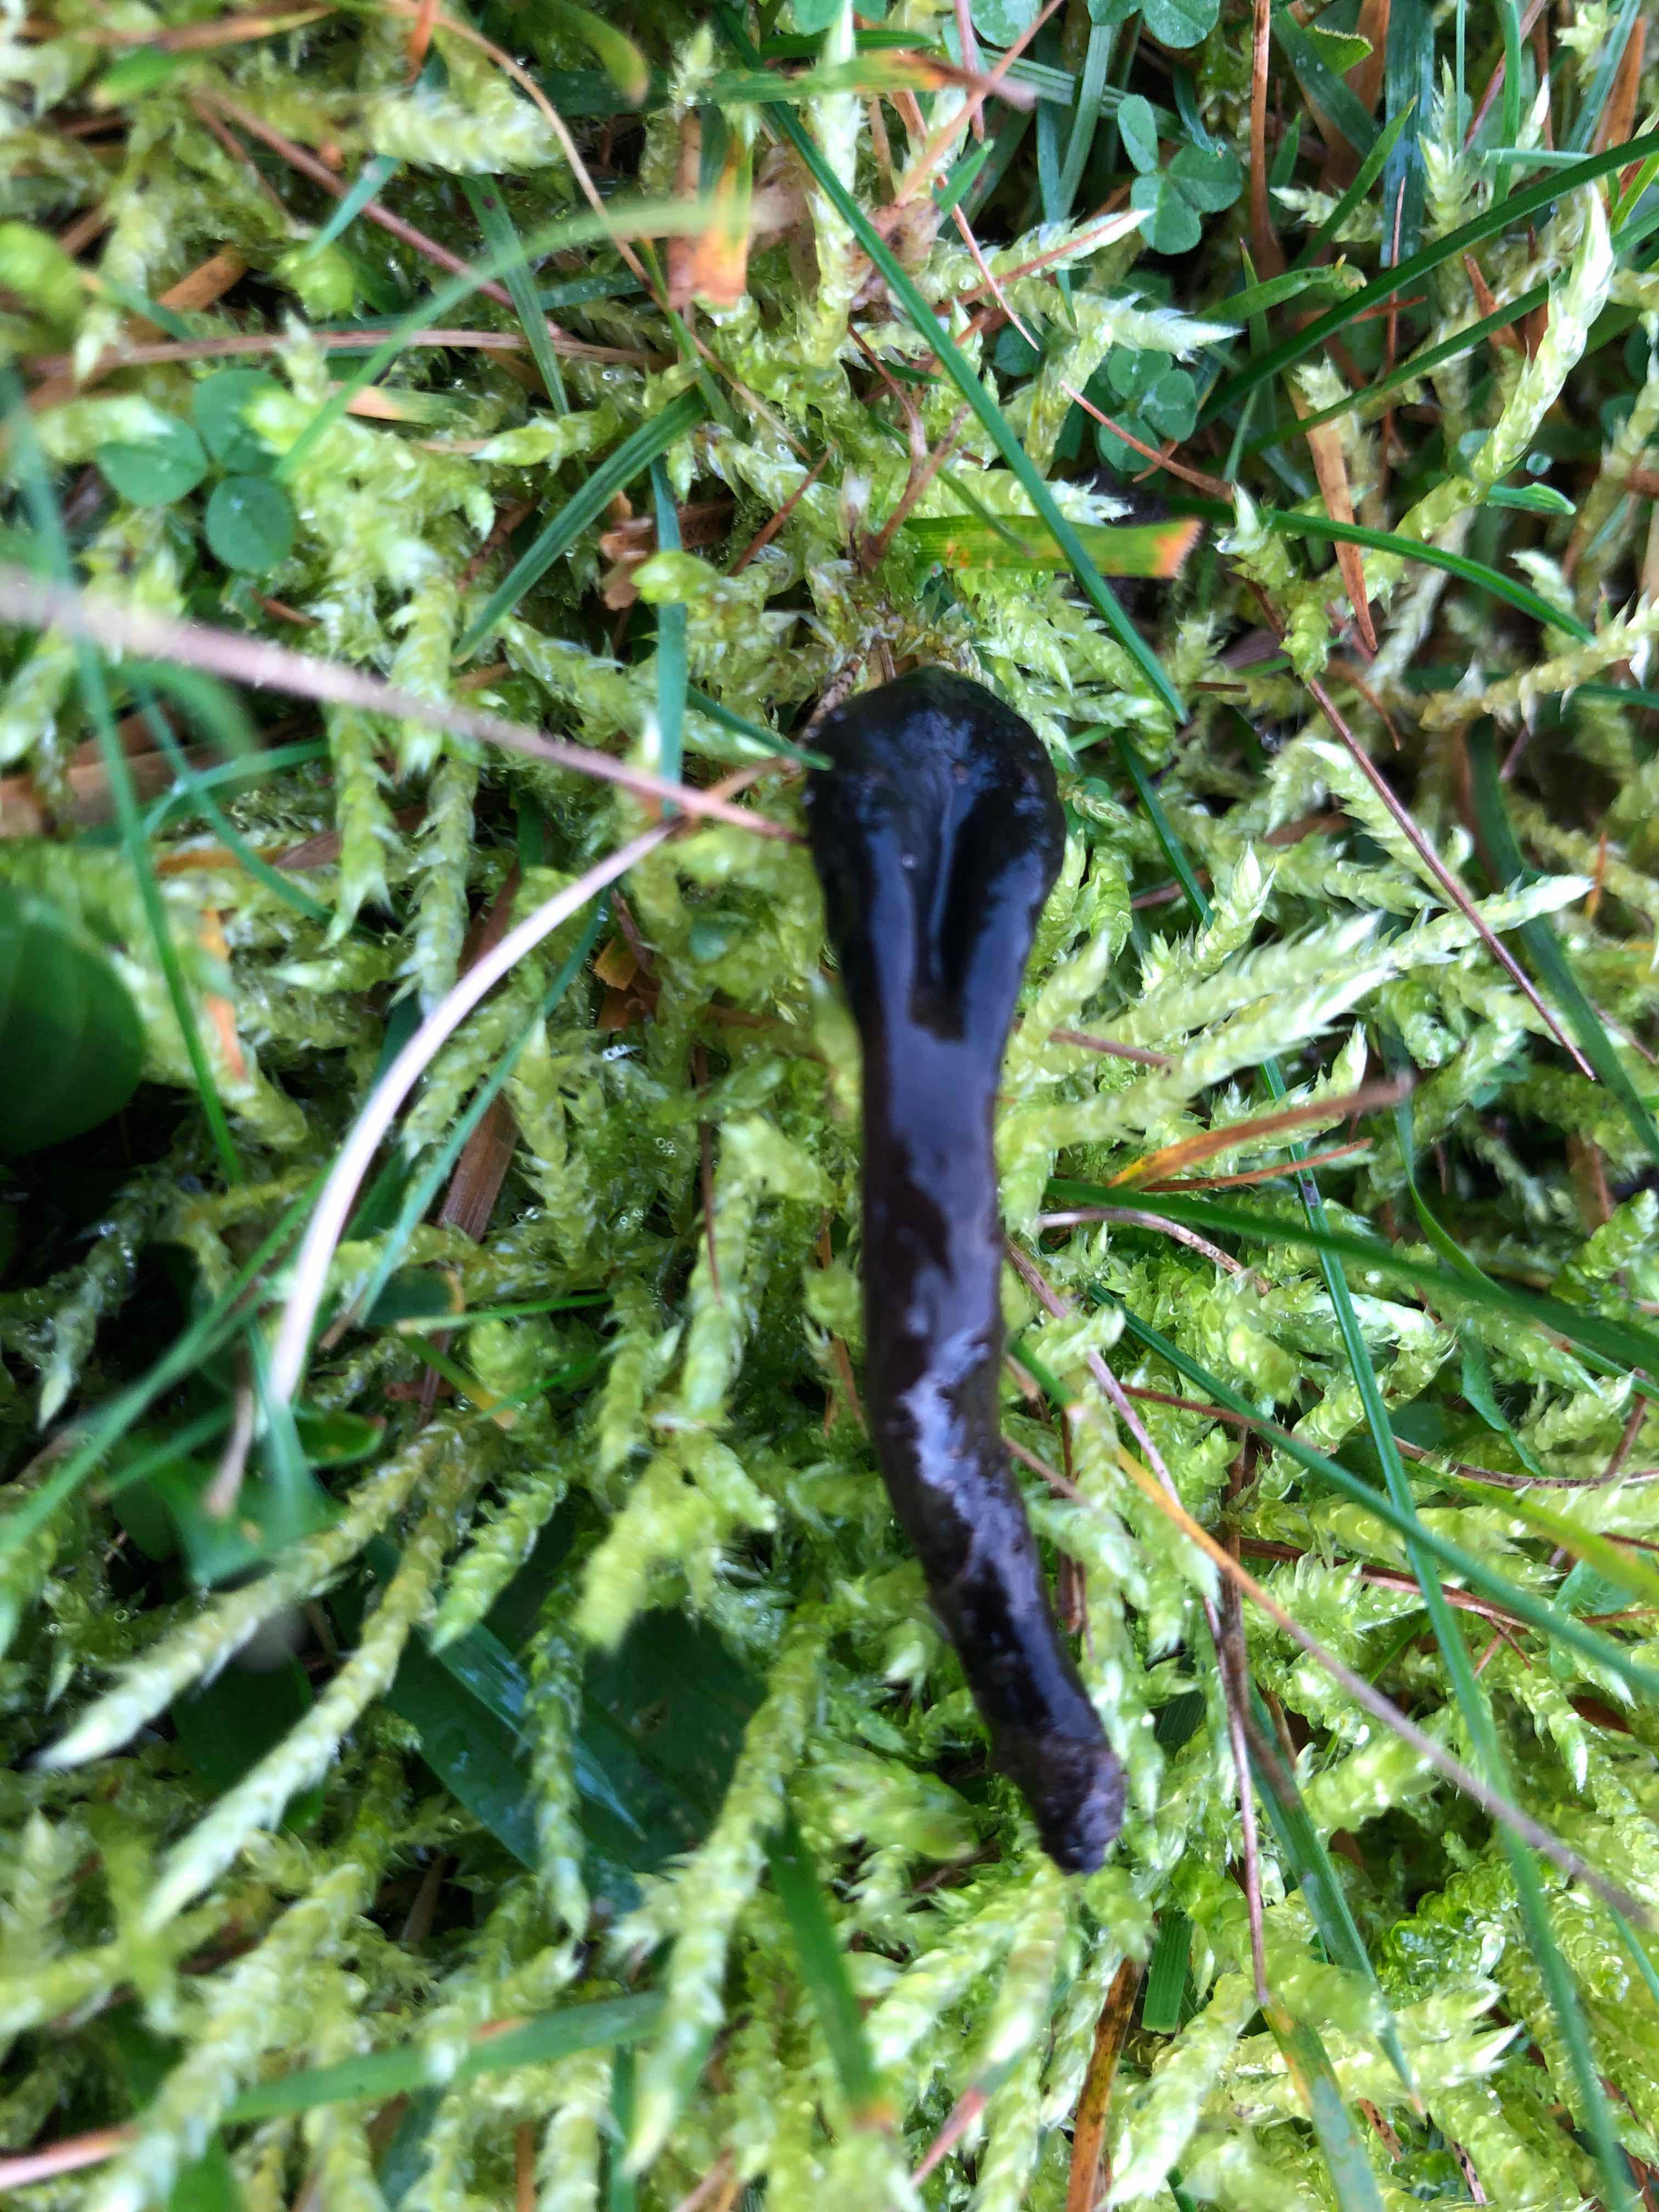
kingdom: Fungi
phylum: Ascomycota
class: Geoglossomycetes
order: Geoglossales
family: Geoglossaceae
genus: Glutinoglossum
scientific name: Glutinoglossum glutinosum
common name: slimet jordtunge
